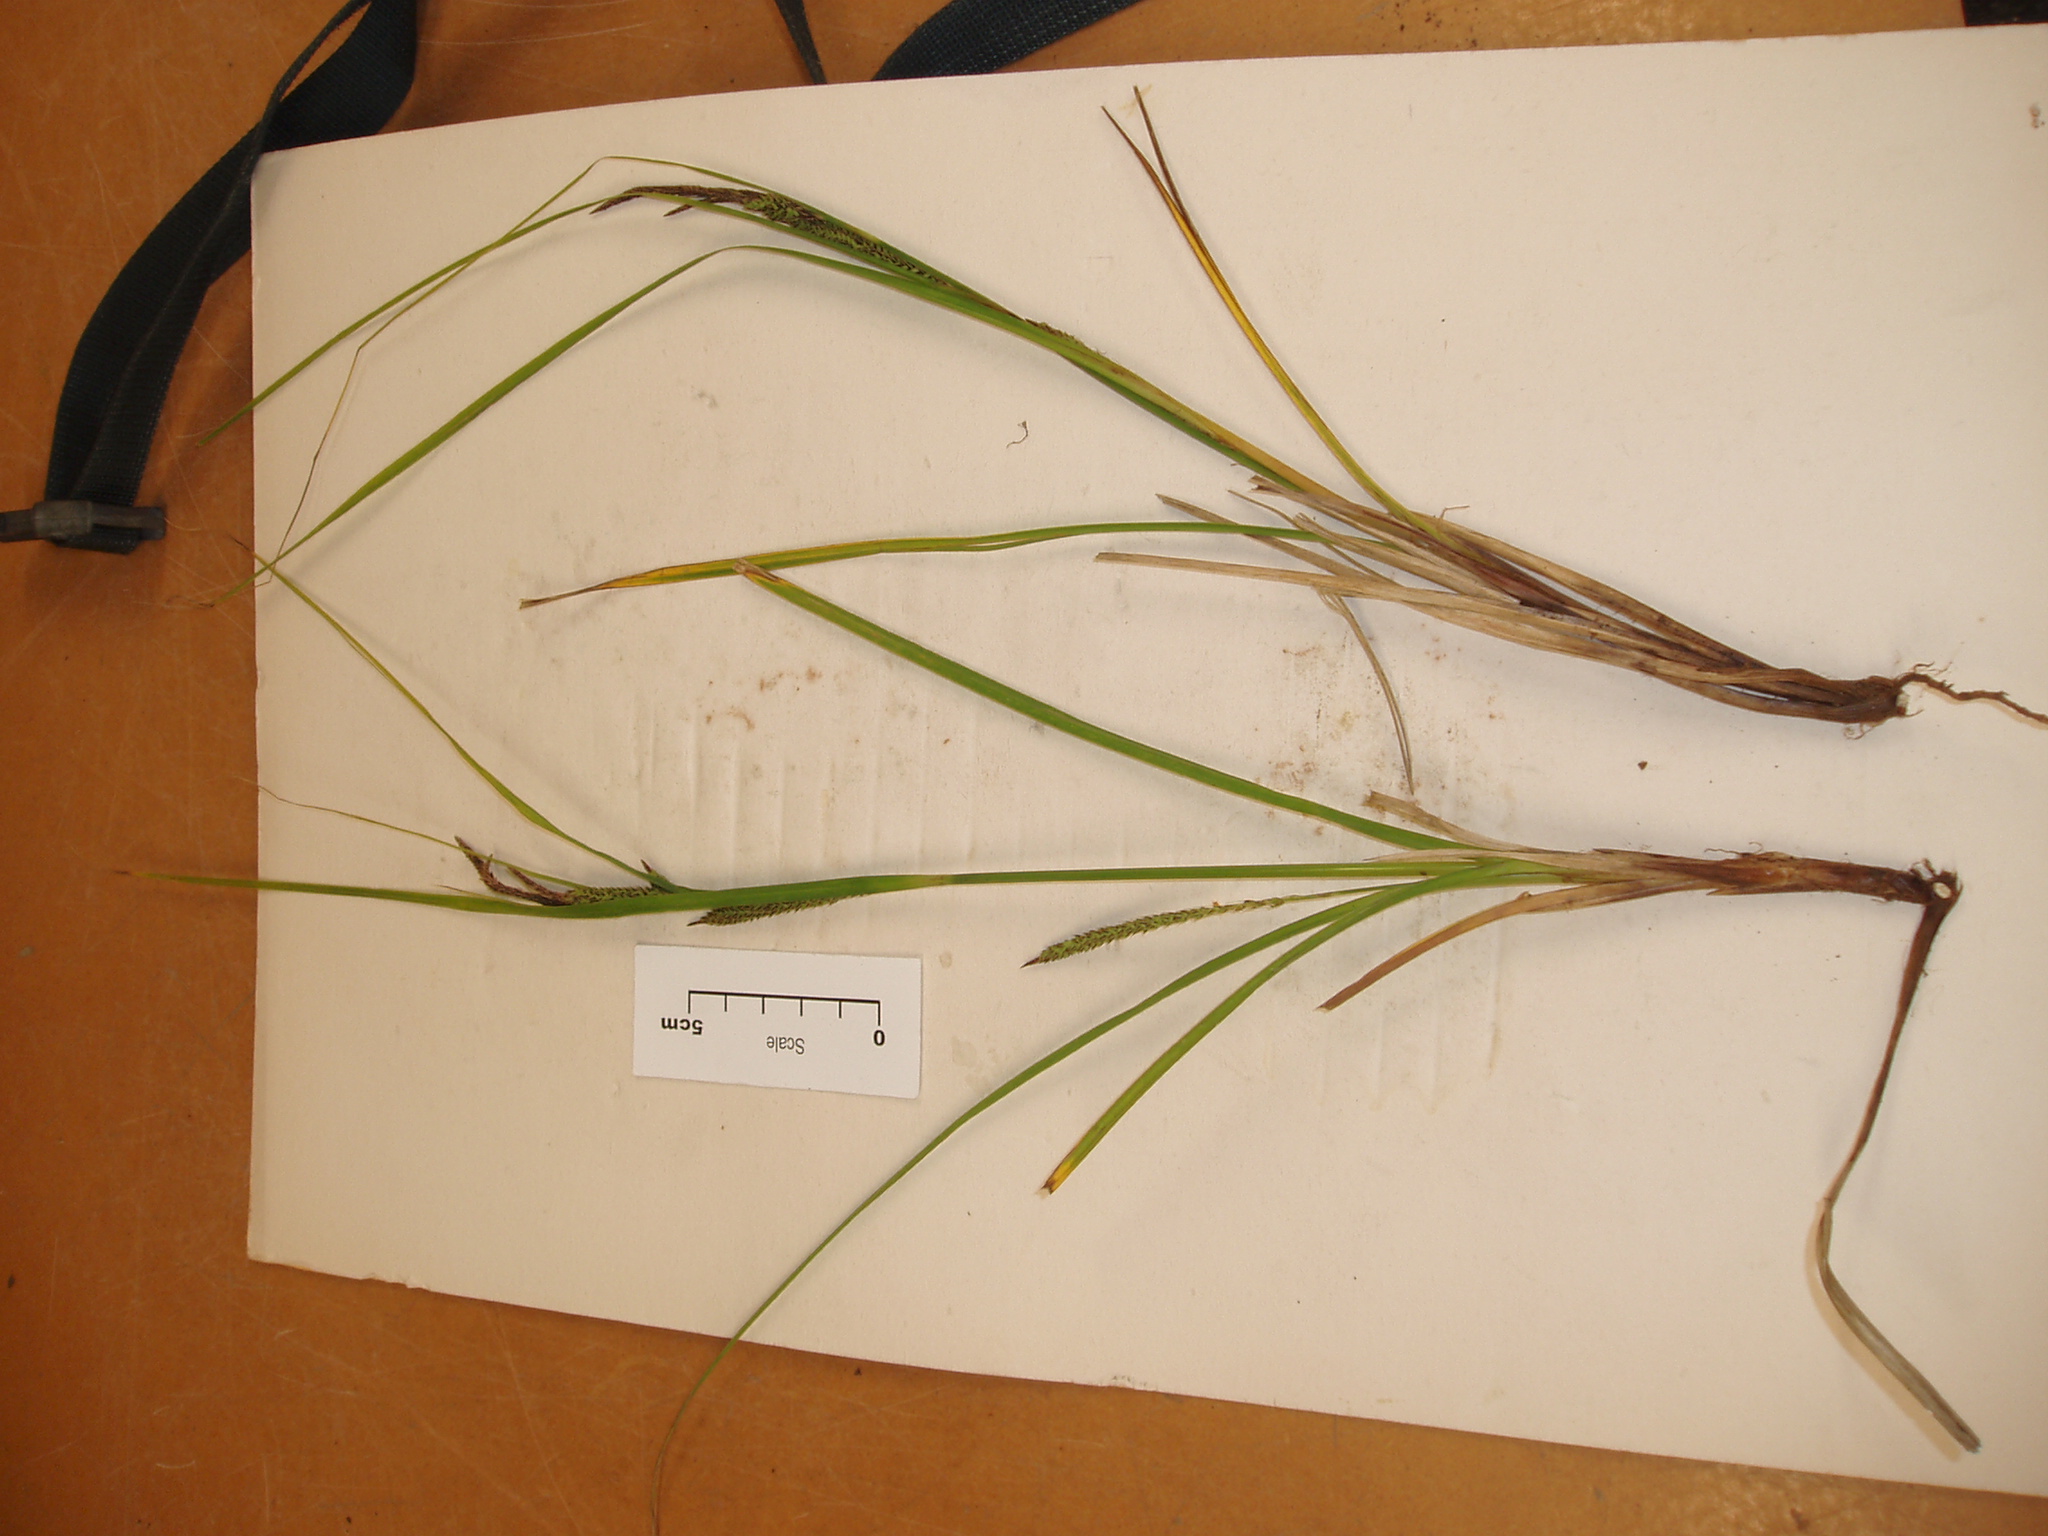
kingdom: Plantae
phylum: Tracheophyta
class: Liliopsida
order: Poales
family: Cyperaceae
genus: Carex
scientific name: Carex subdola
